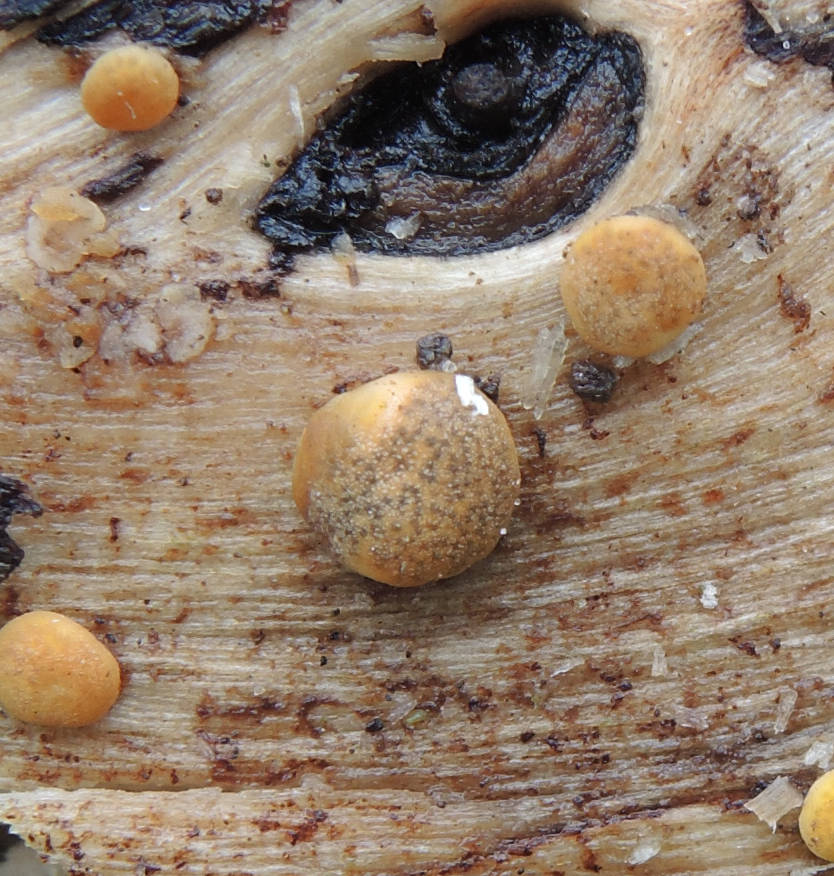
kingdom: Fungi
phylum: Ascomycota
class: Sordariomycetes
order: Hypocreales
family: Hypocreaceae
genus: Trichoderma
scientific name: Trichoderma aureoviride
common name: æggegul kødkerne
